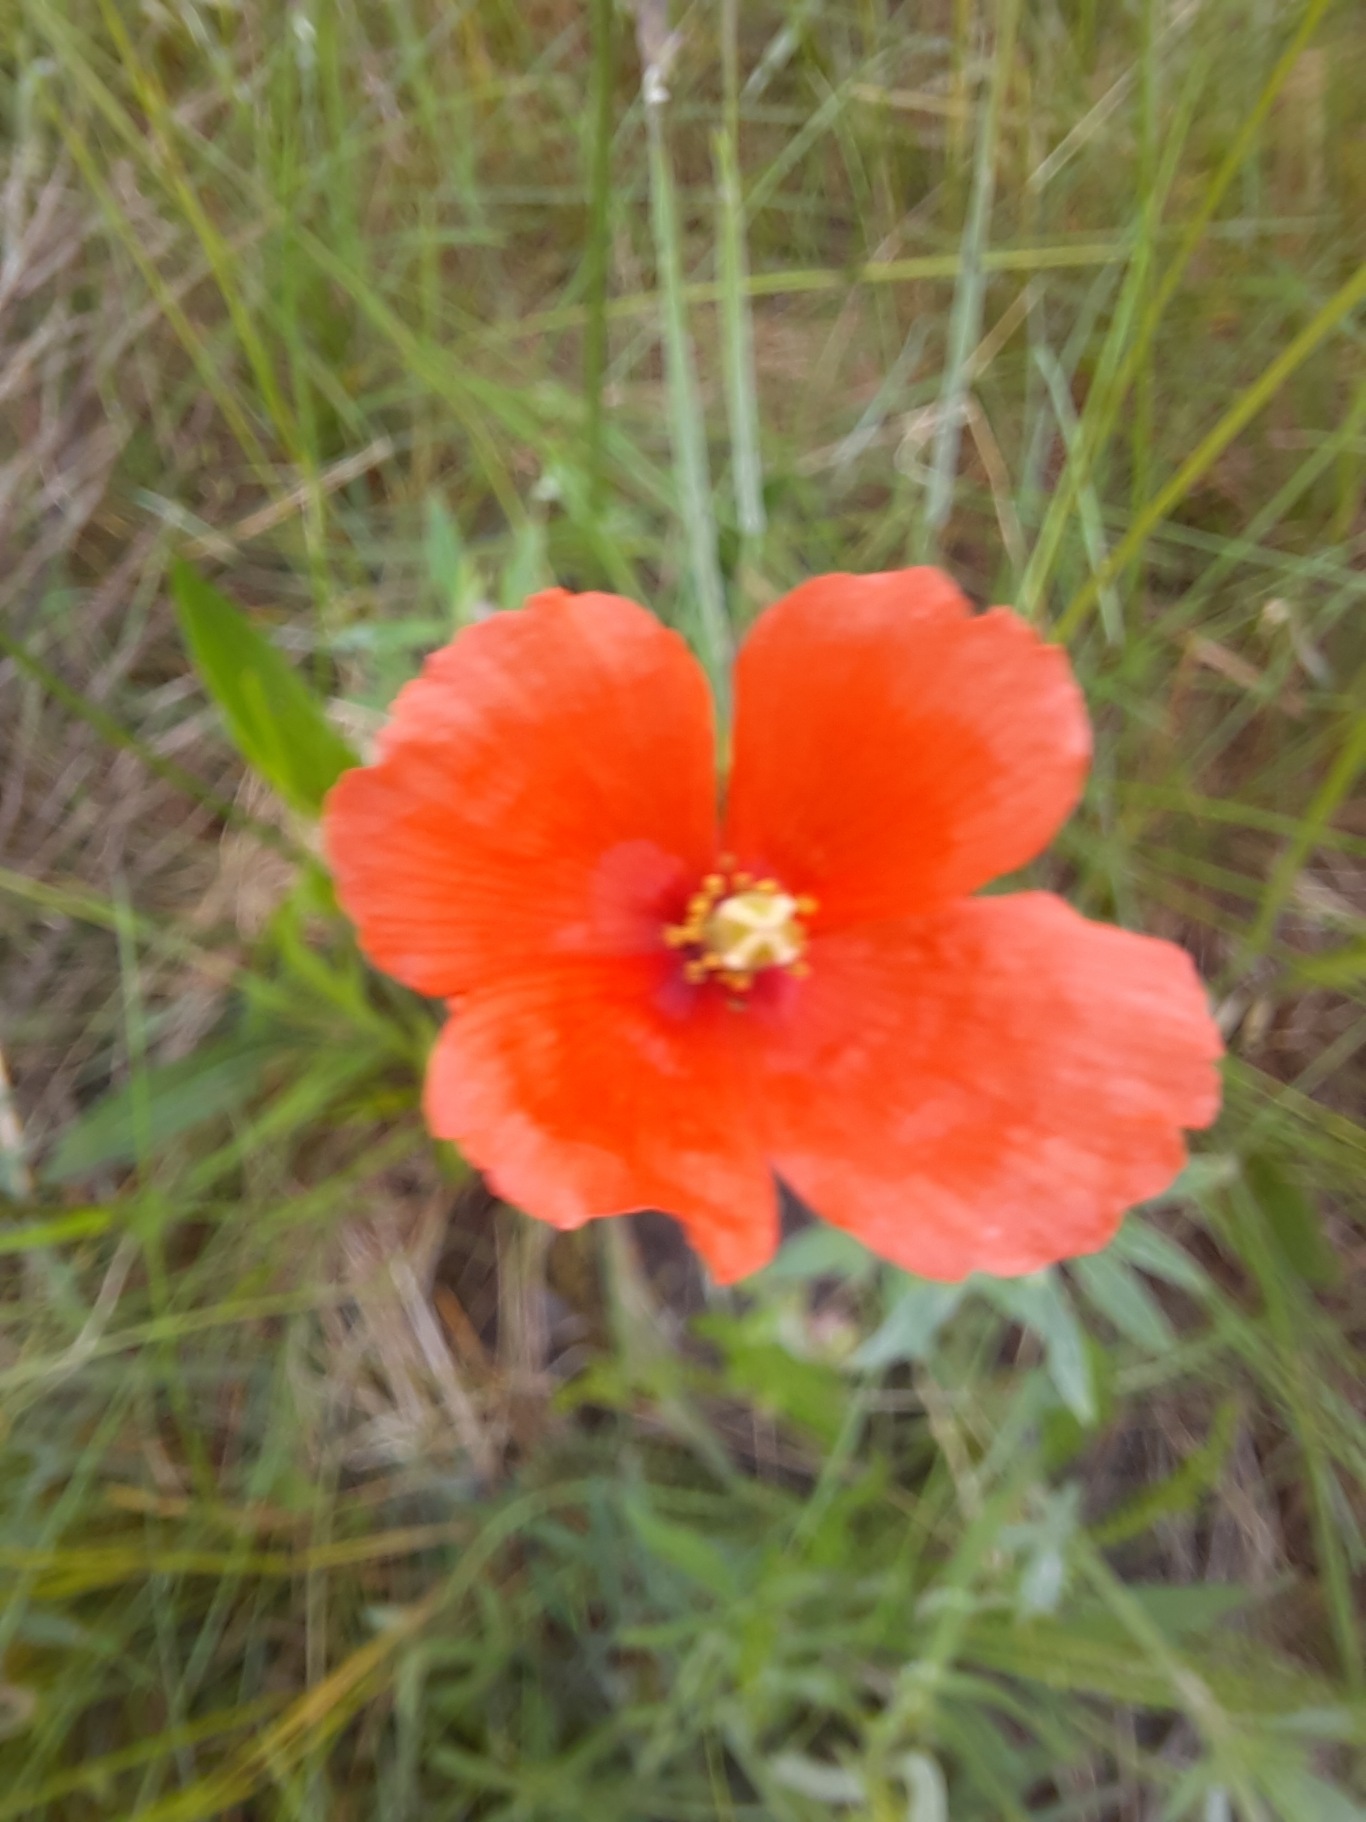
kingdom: Plantae
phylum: Tracheophyta
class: Magnoliopsida
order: Ranunculales
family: Papaveraceae
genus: Papaver
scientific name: Papaver dubium
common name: Gærde-valmue
